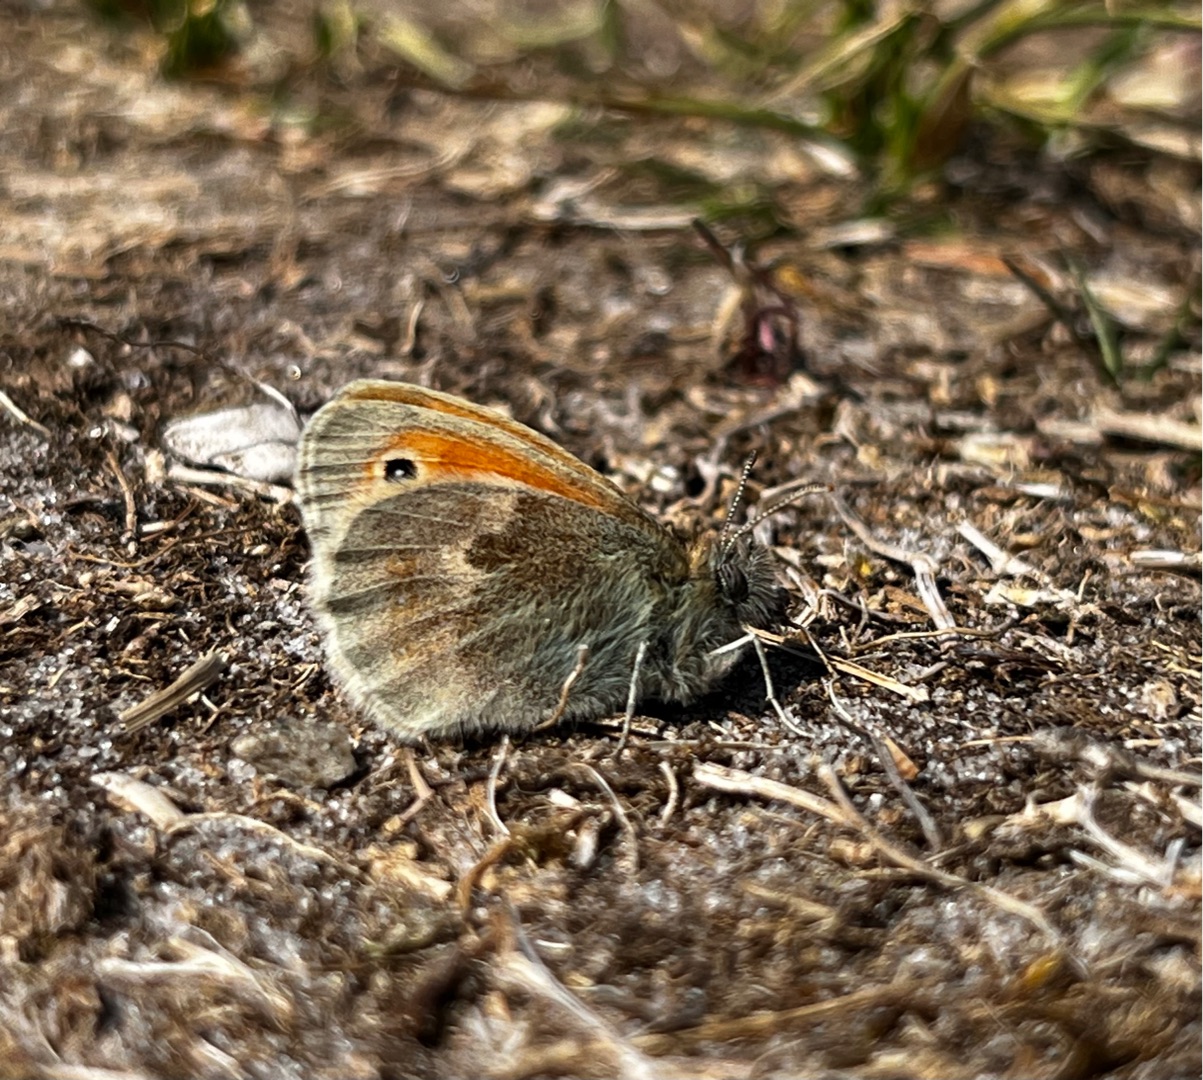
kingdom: Animalia
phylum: Arthropoda
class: Insecta
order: Lepidoptera
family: Nymphalidae
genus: Coenonympha
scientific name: Coenonympha pamphilus
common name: Okkergul randøje
